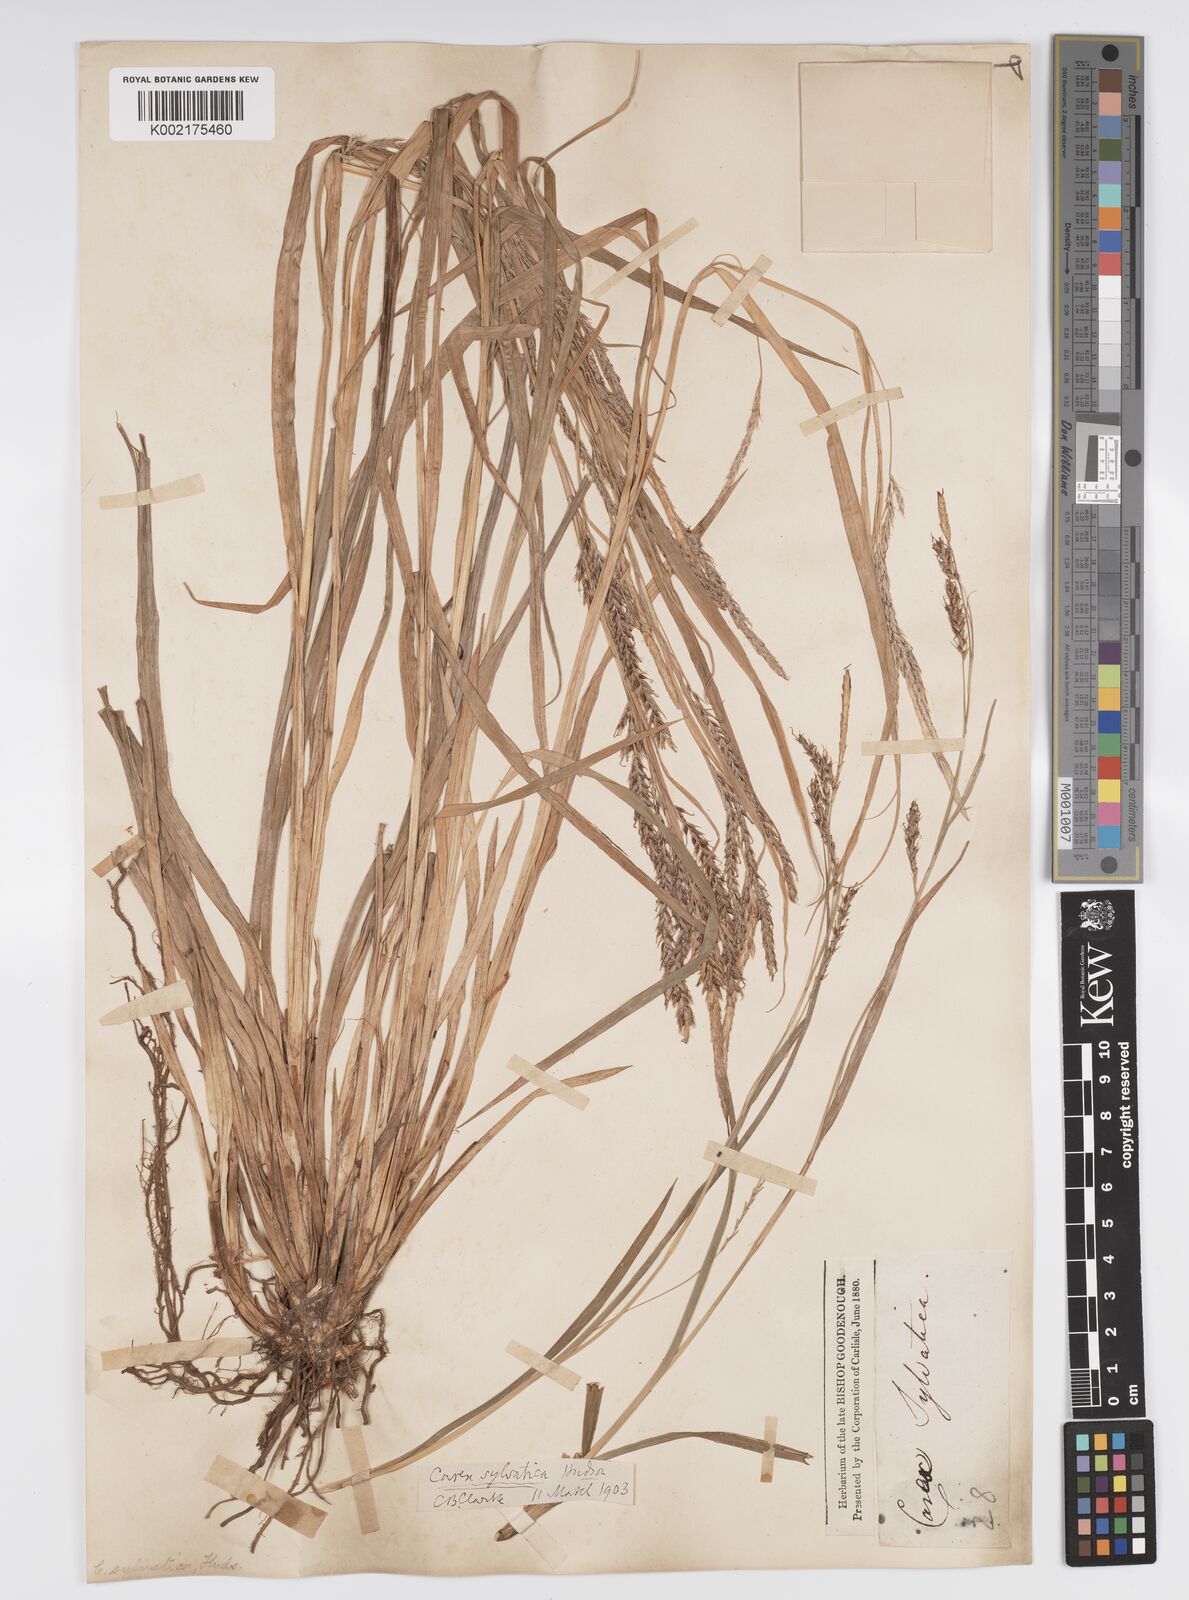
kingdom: Plantae
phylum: Tracheophyta
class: Liliopsida
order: Poales
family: Cyperaceae
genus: Carex
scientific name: Carex sylvatica
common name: Wood-sedge
